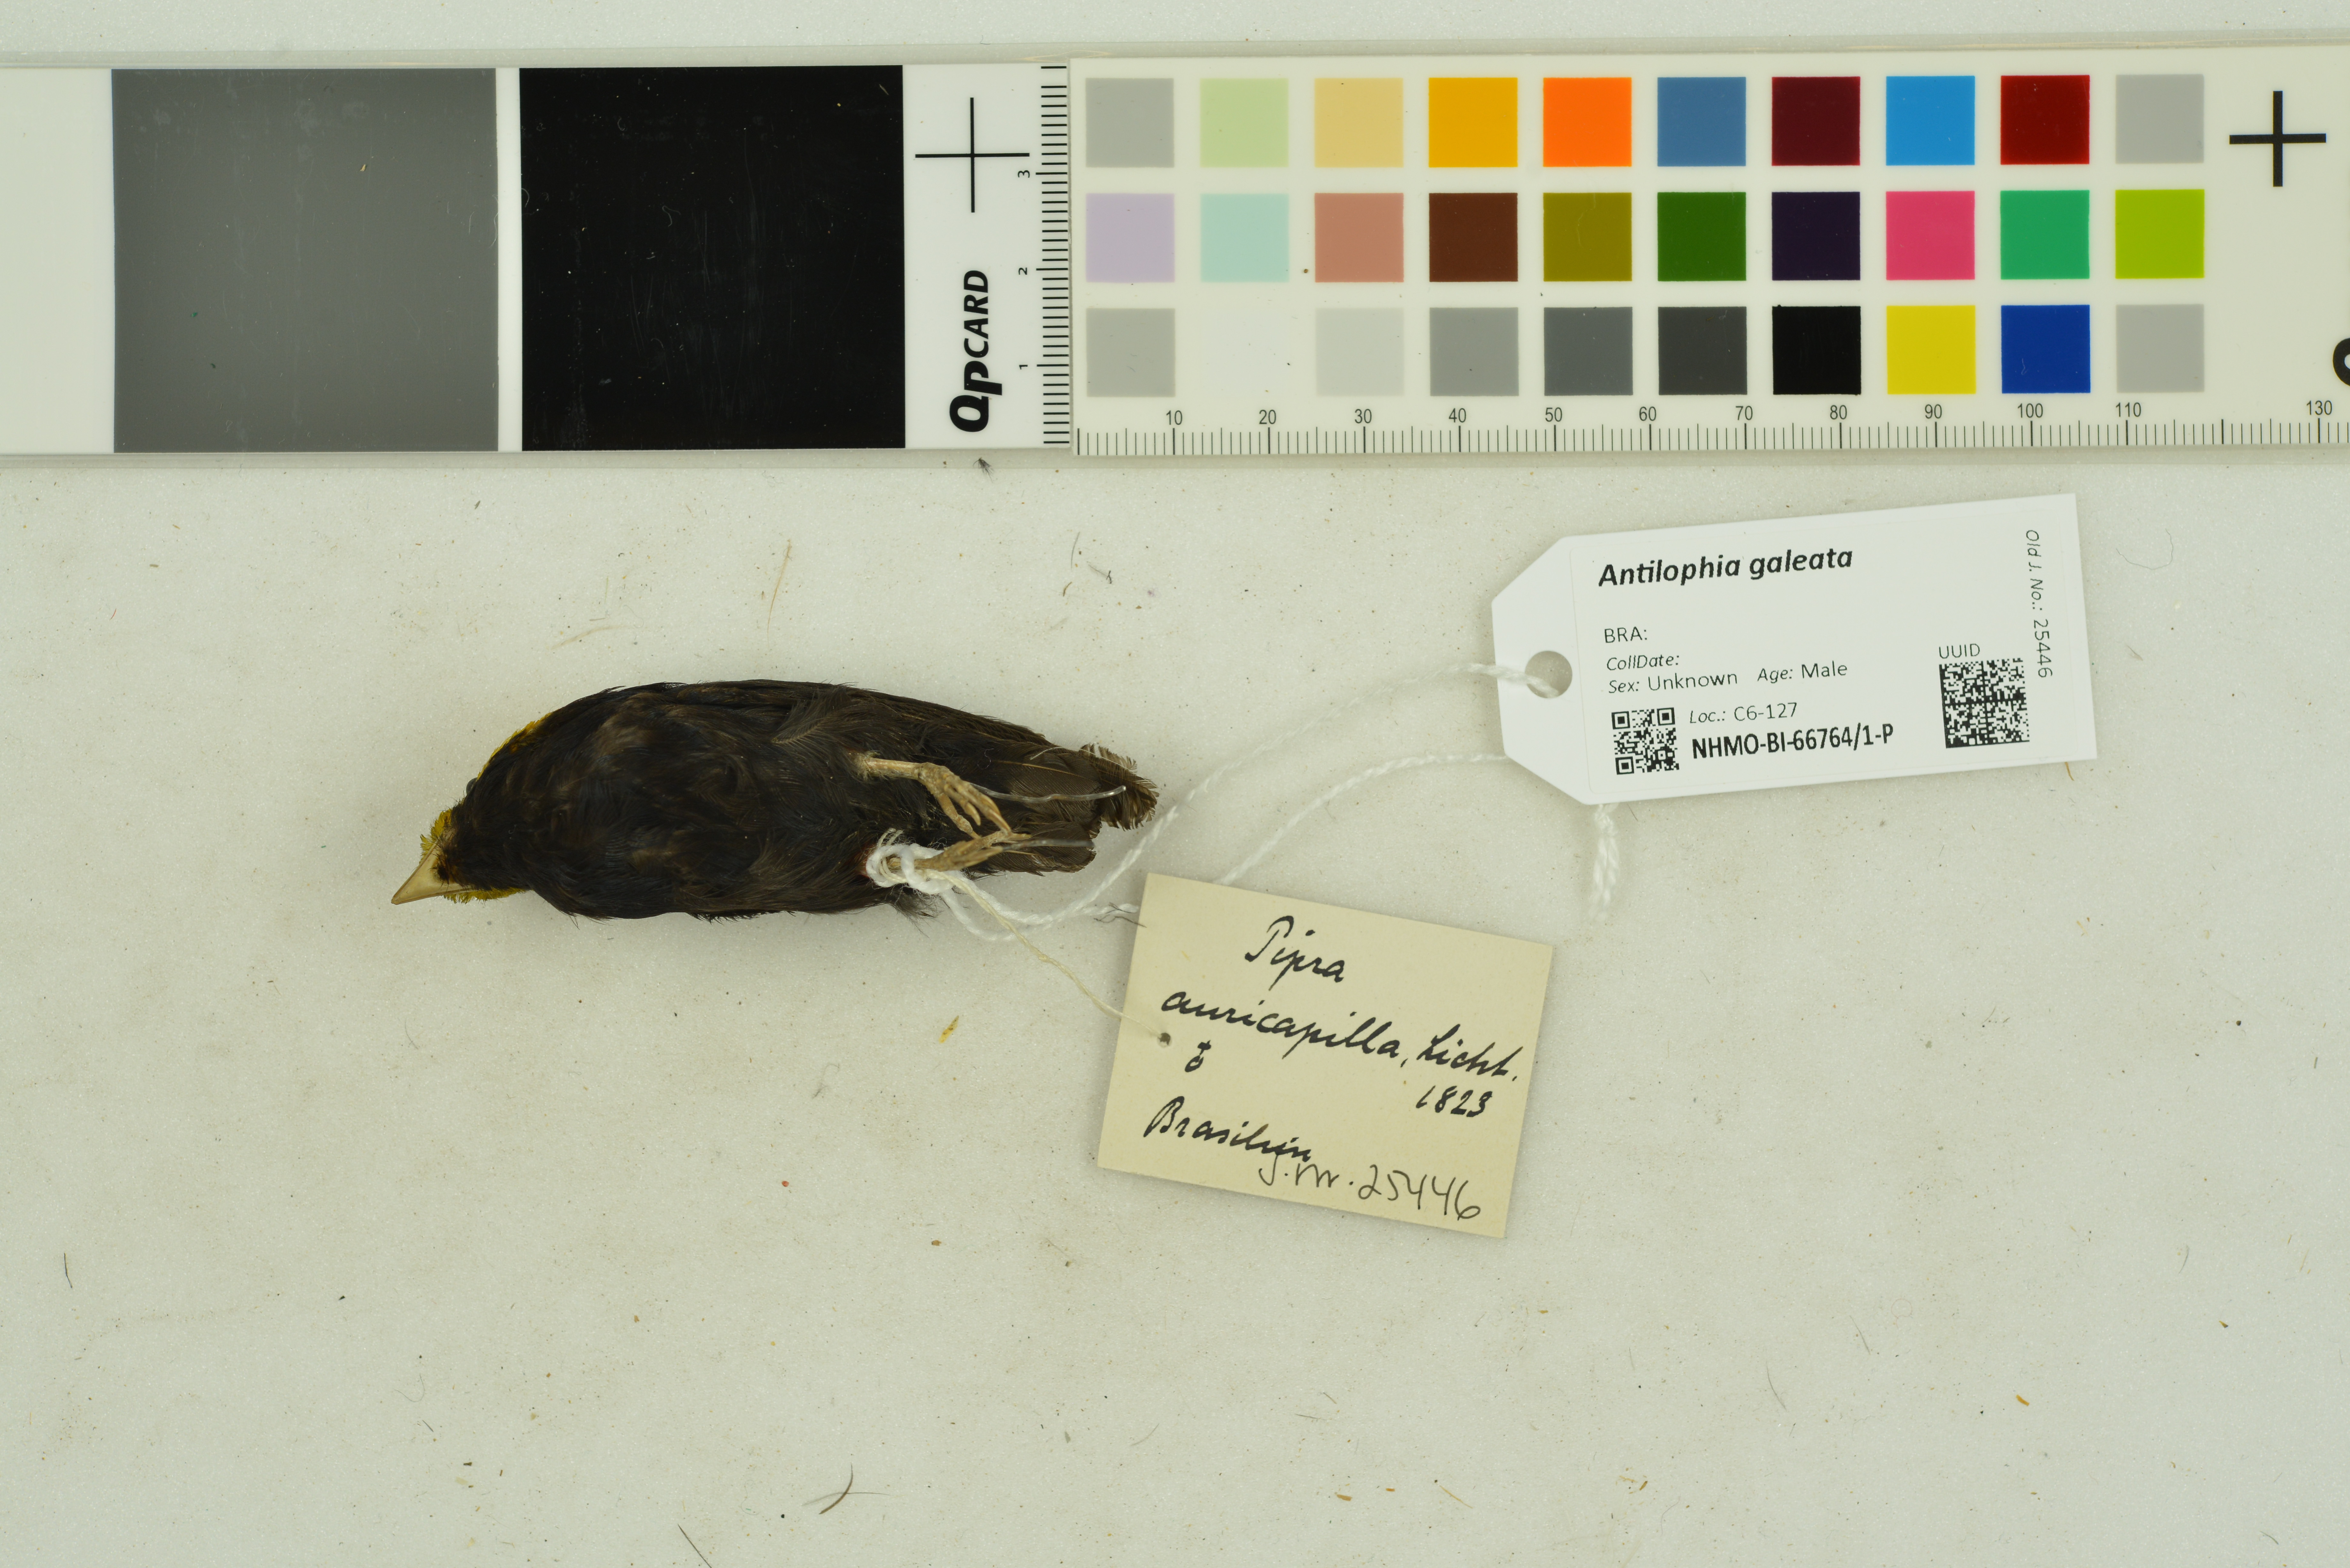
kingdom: Animalia
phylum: Chordata
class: Aves
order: Passeriformes
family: Pipridae
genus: Antilophia
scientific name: Antilophia galeata
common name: Helmeted manakin
